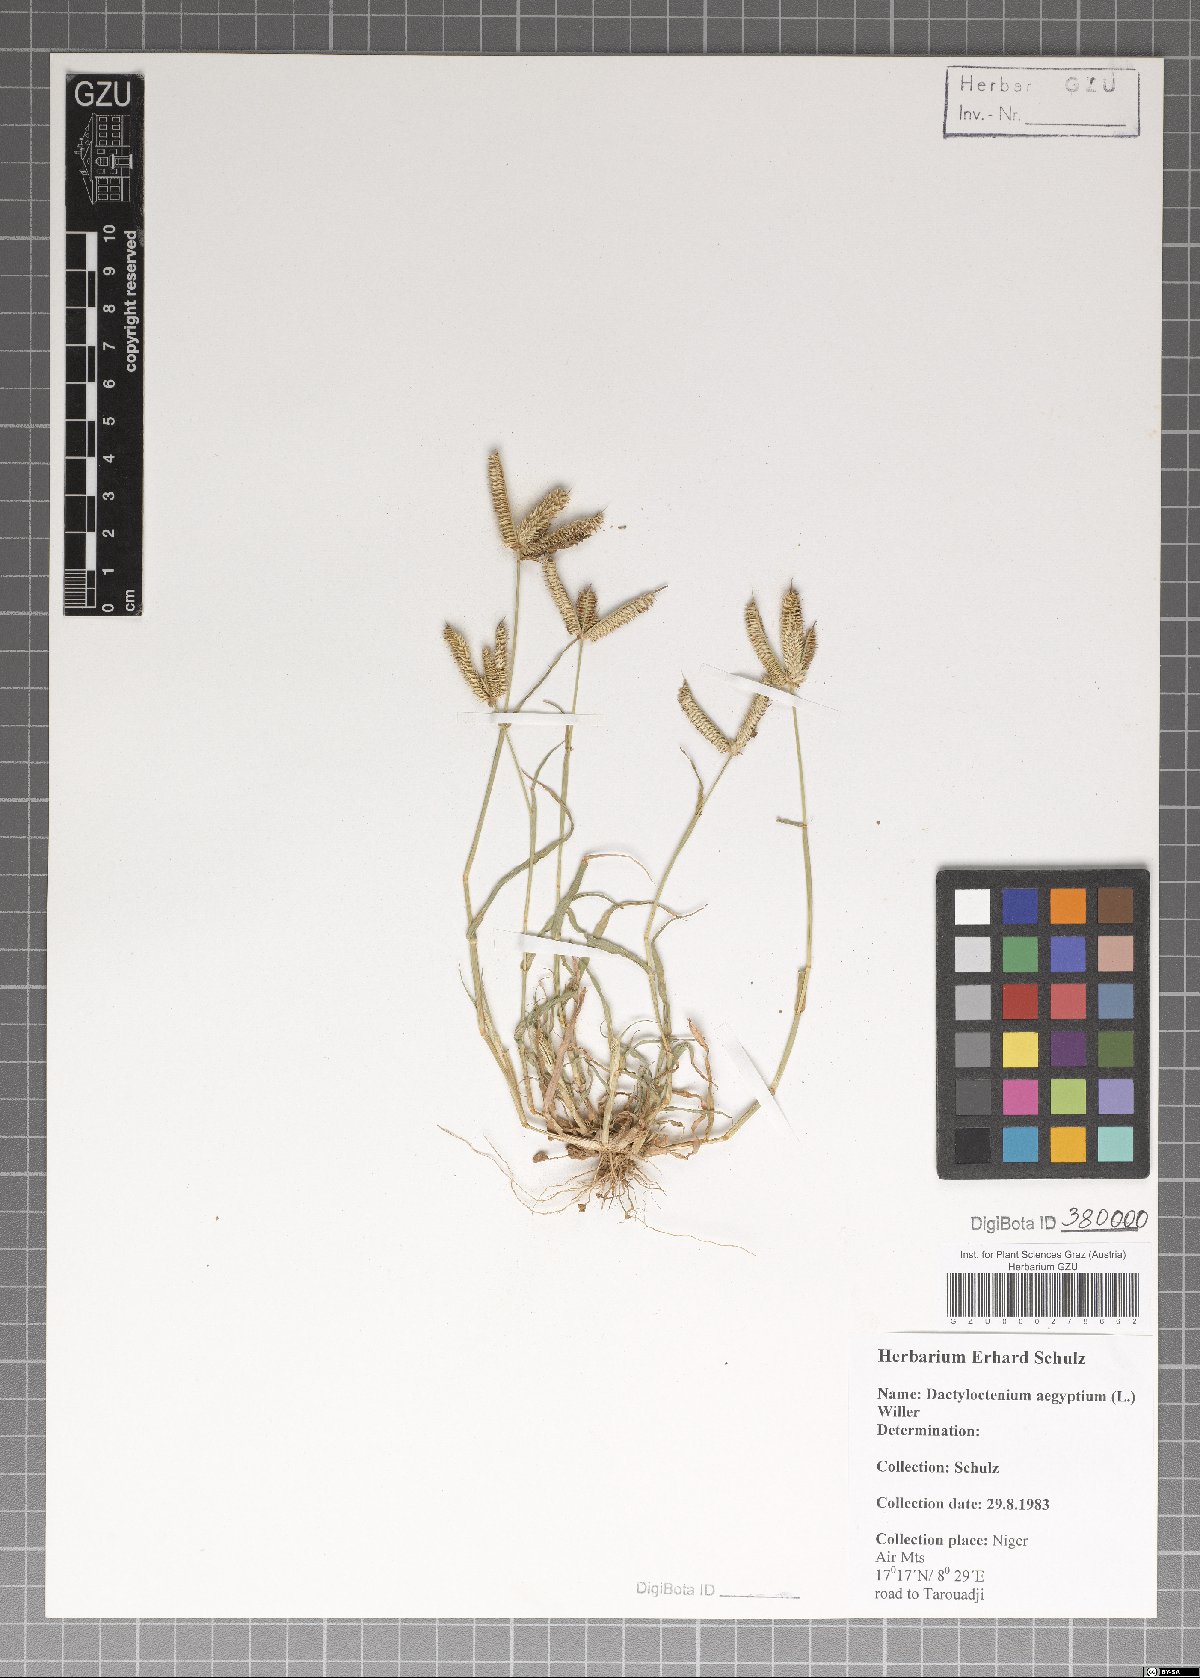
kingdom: Plantae
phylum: Tracheophyta
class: Liliopsida
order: Poales
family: Poaceae
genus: Dactyloctenium
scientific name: Dactyloctenium aegyptium
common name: Egyptian grass
